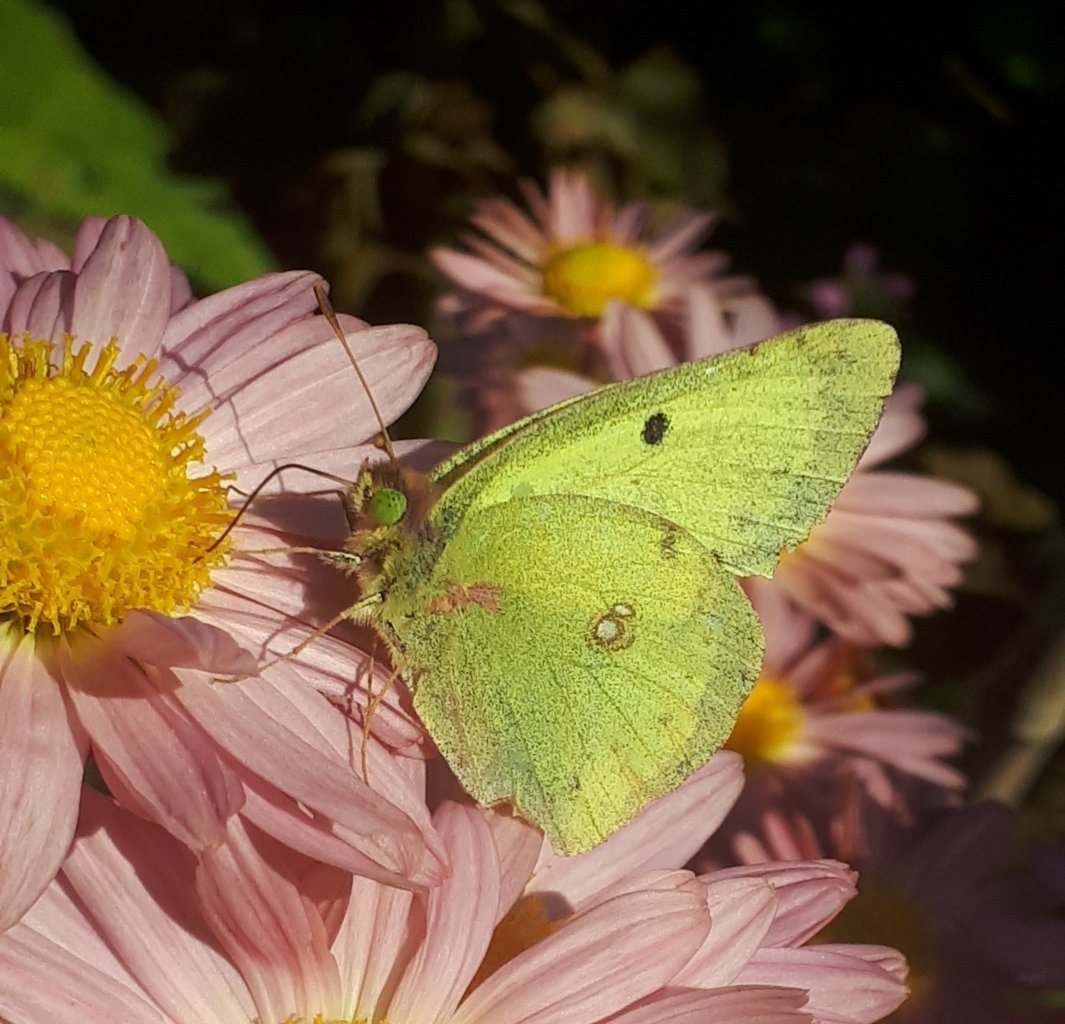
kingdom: Animalia
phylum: Arthropoda
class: Insecta
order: Lepidoptera
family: Pieridae
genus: Colias
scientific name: Colias philodice
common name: Clouded Sulphur
